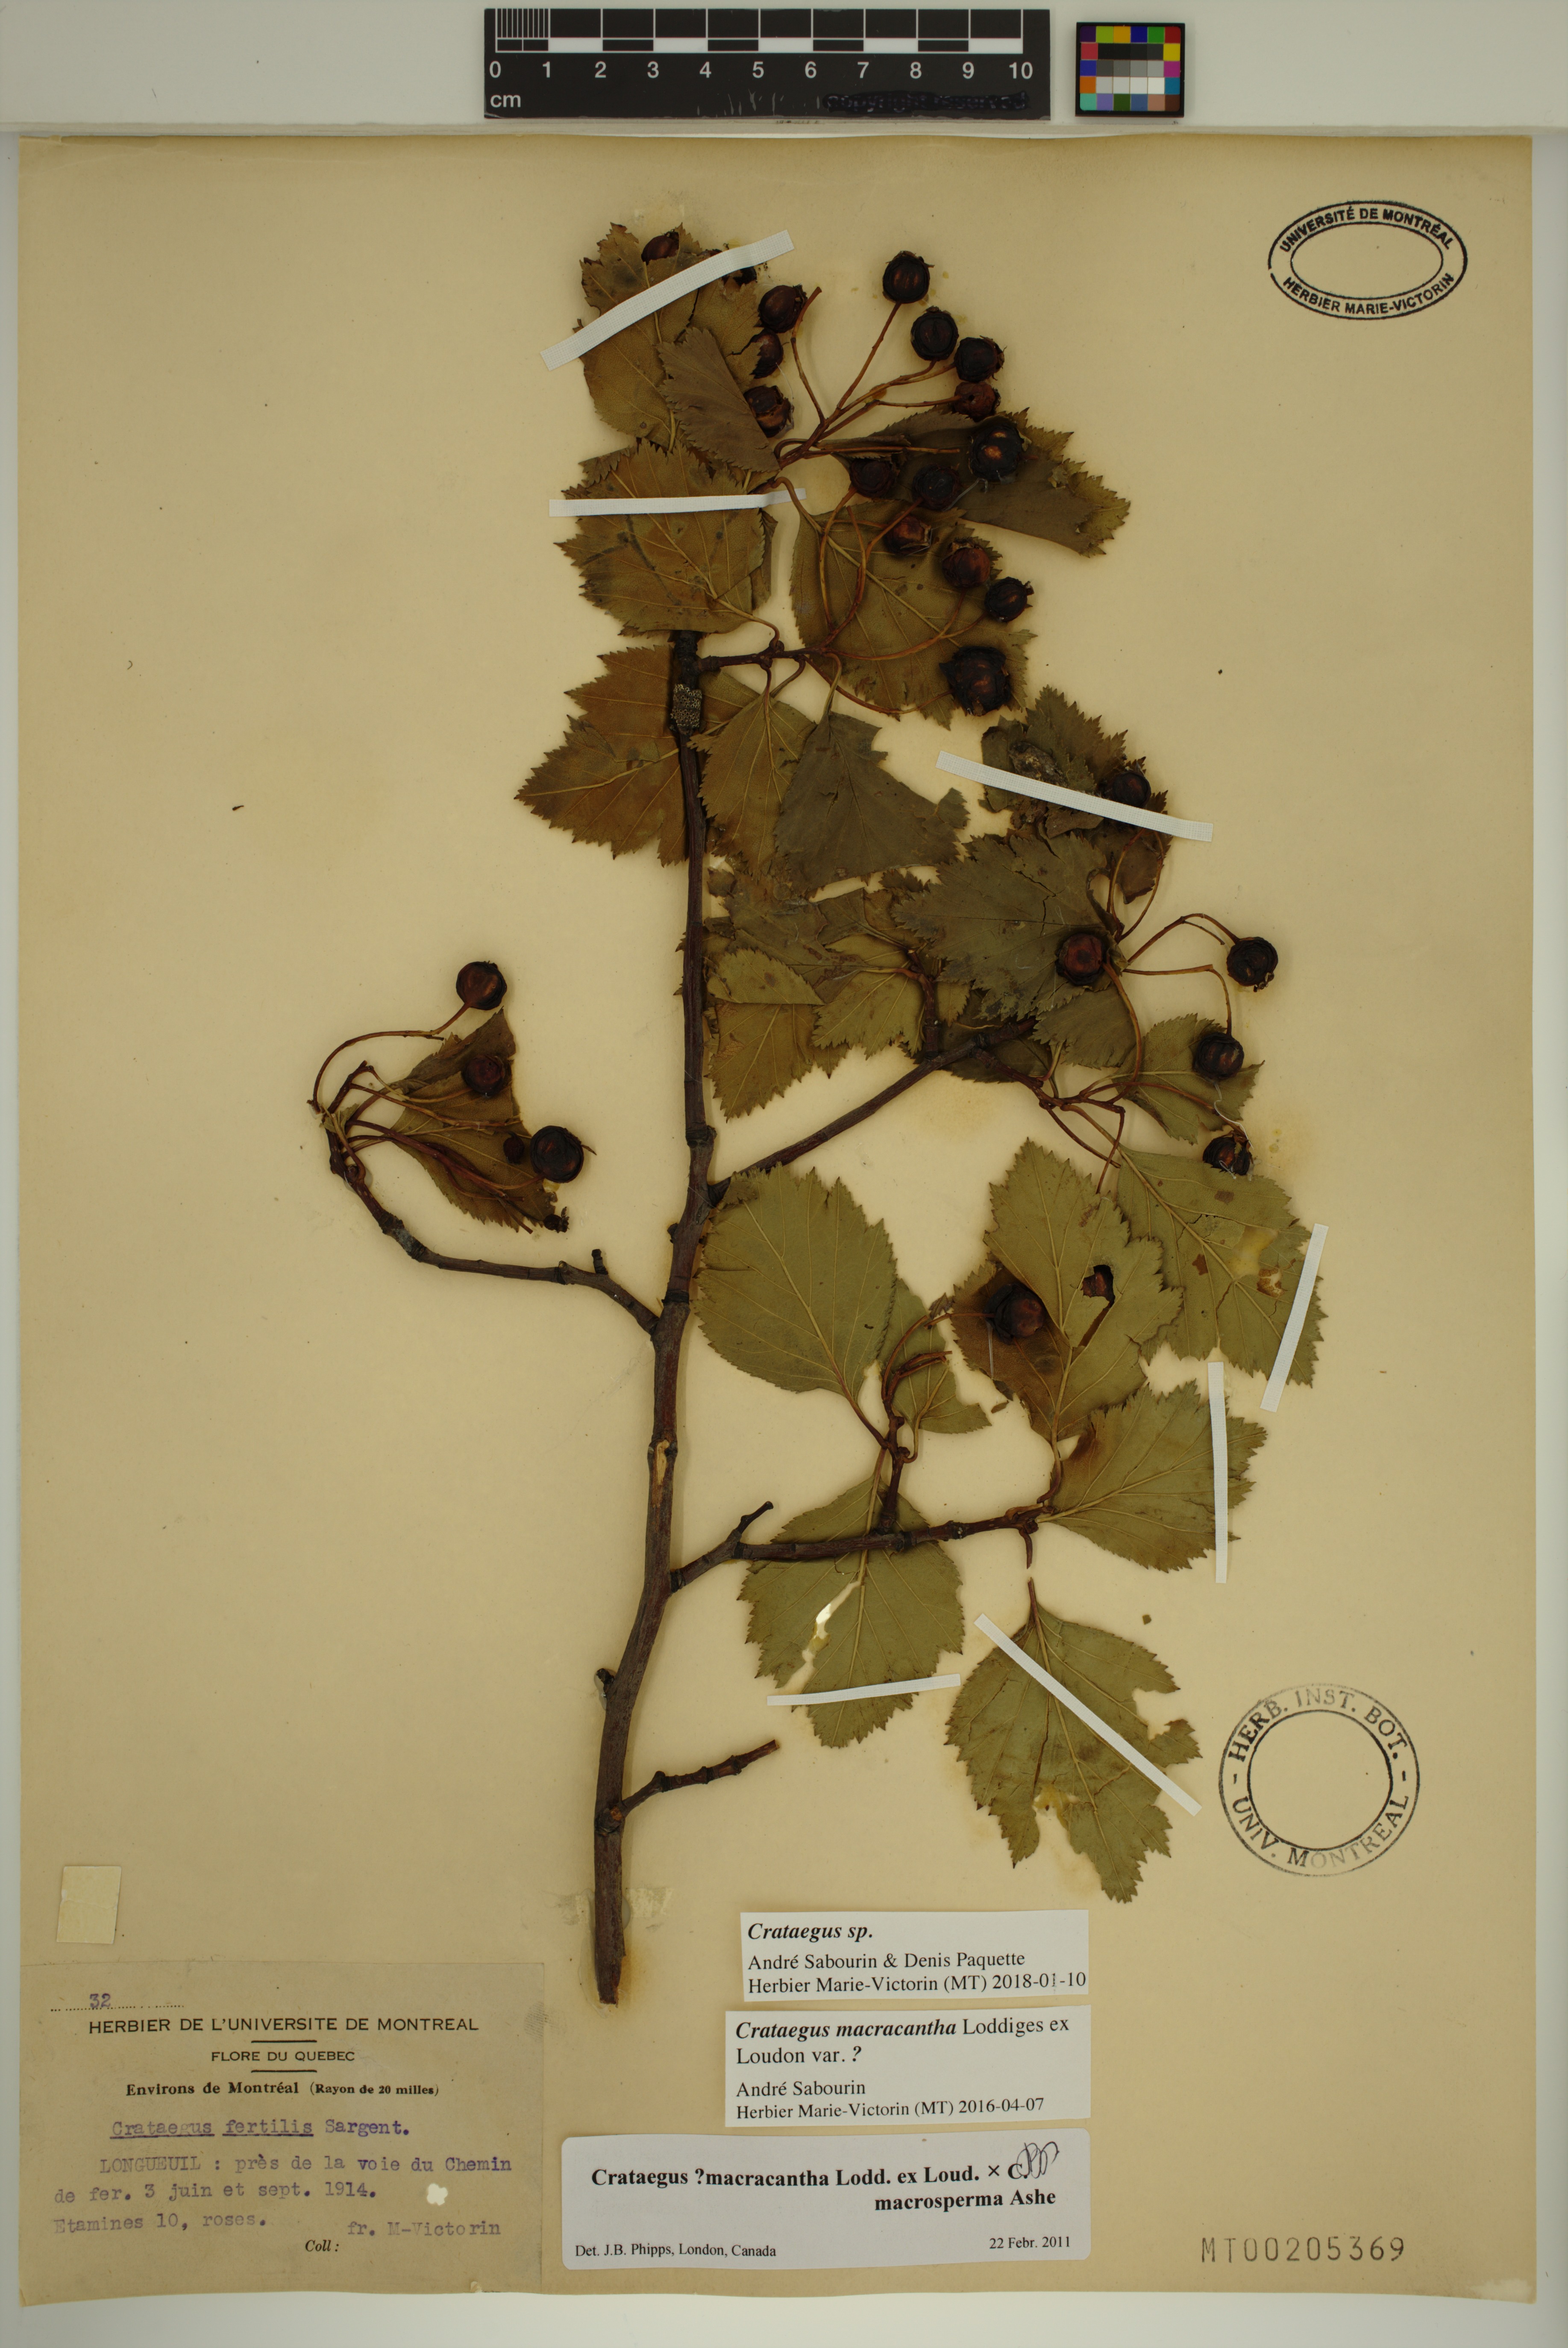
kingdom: Plantae
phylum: Tracheophyta
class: Magnoliopsida
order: Rosales
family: Rosaceae
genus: Crataegus
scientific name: Crataegus macracantha
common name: Large-thorn hawthorn
